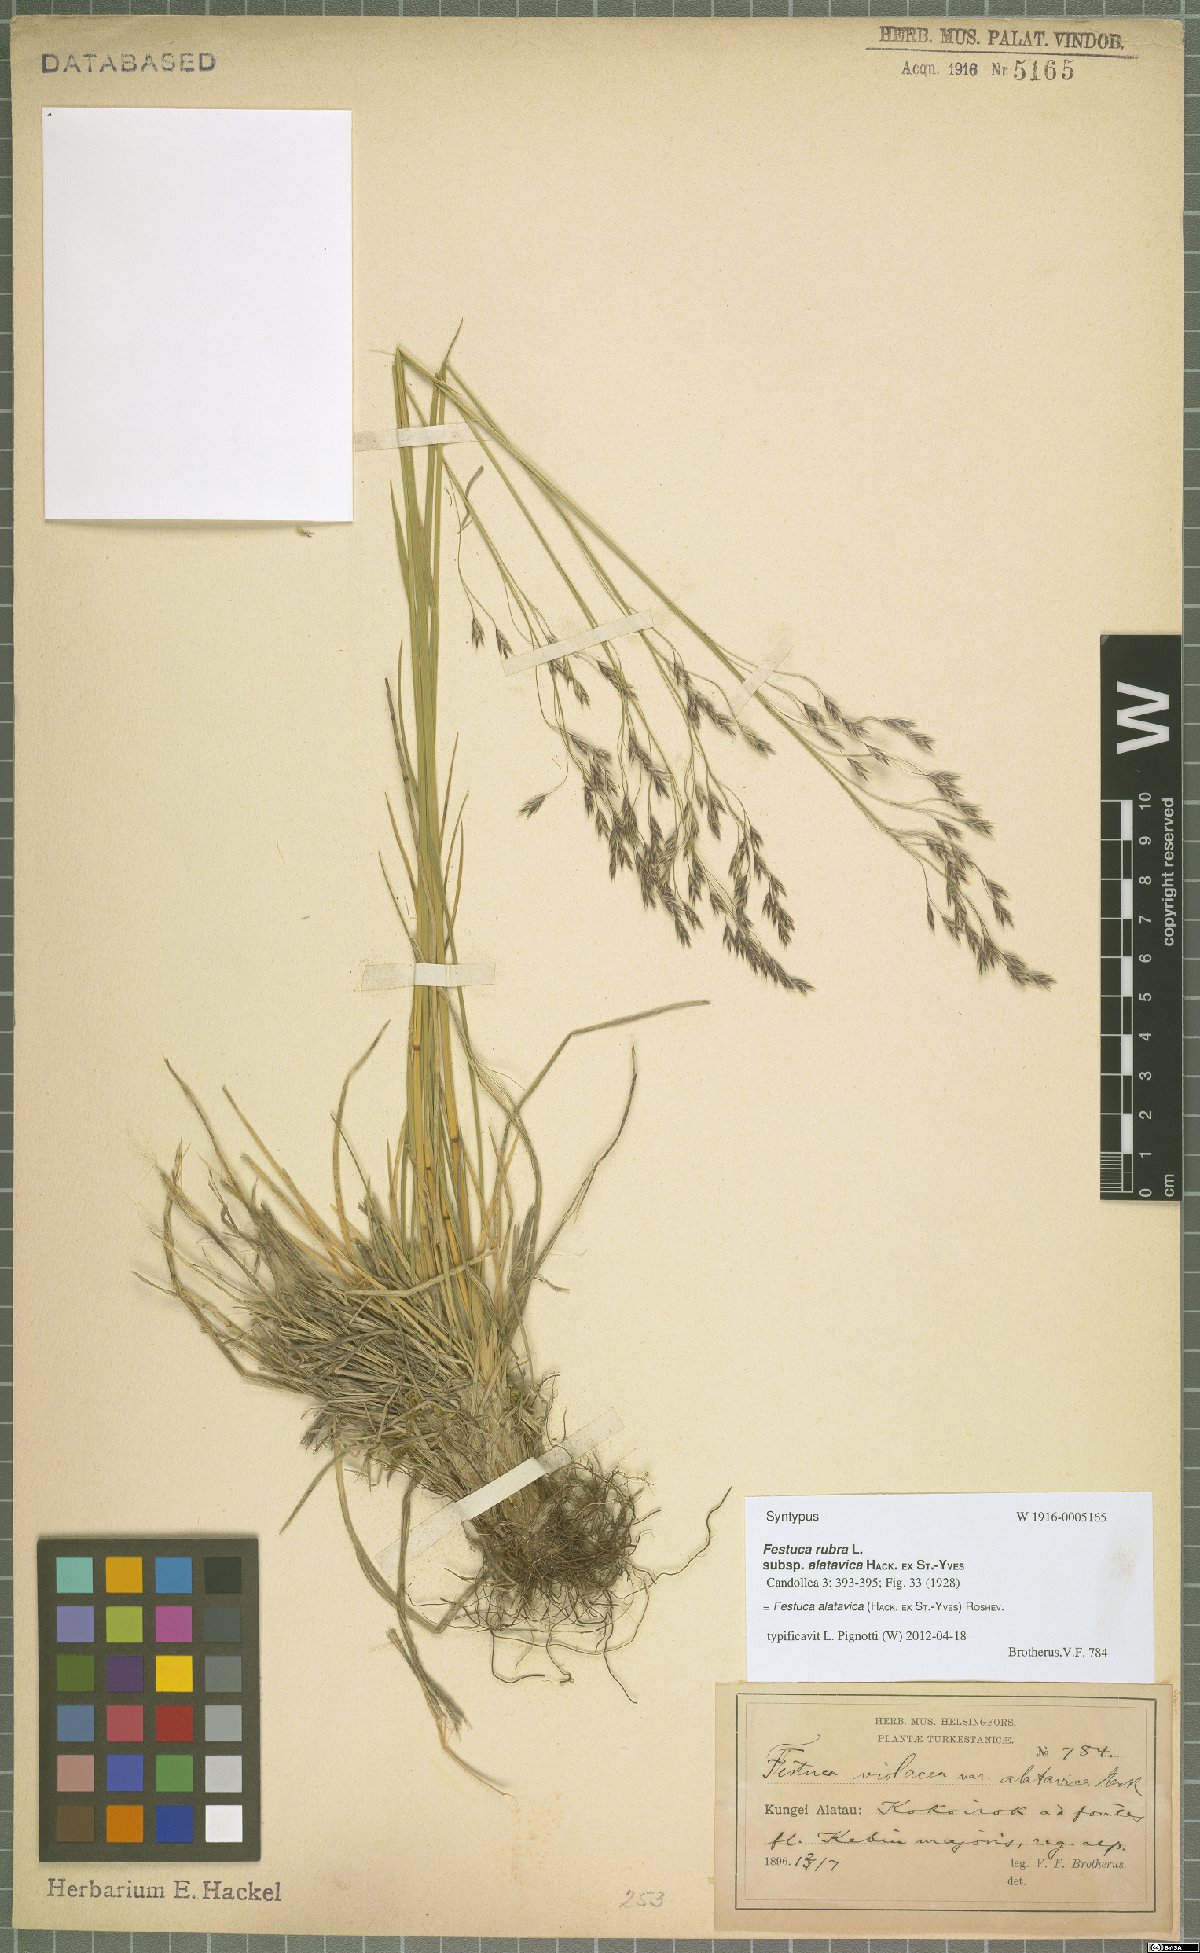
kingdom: Plantae
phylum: Tracheophyta
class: Liliopsida
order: Poales
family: Poaceae
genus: Festuca
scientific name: Festuca alatavica
